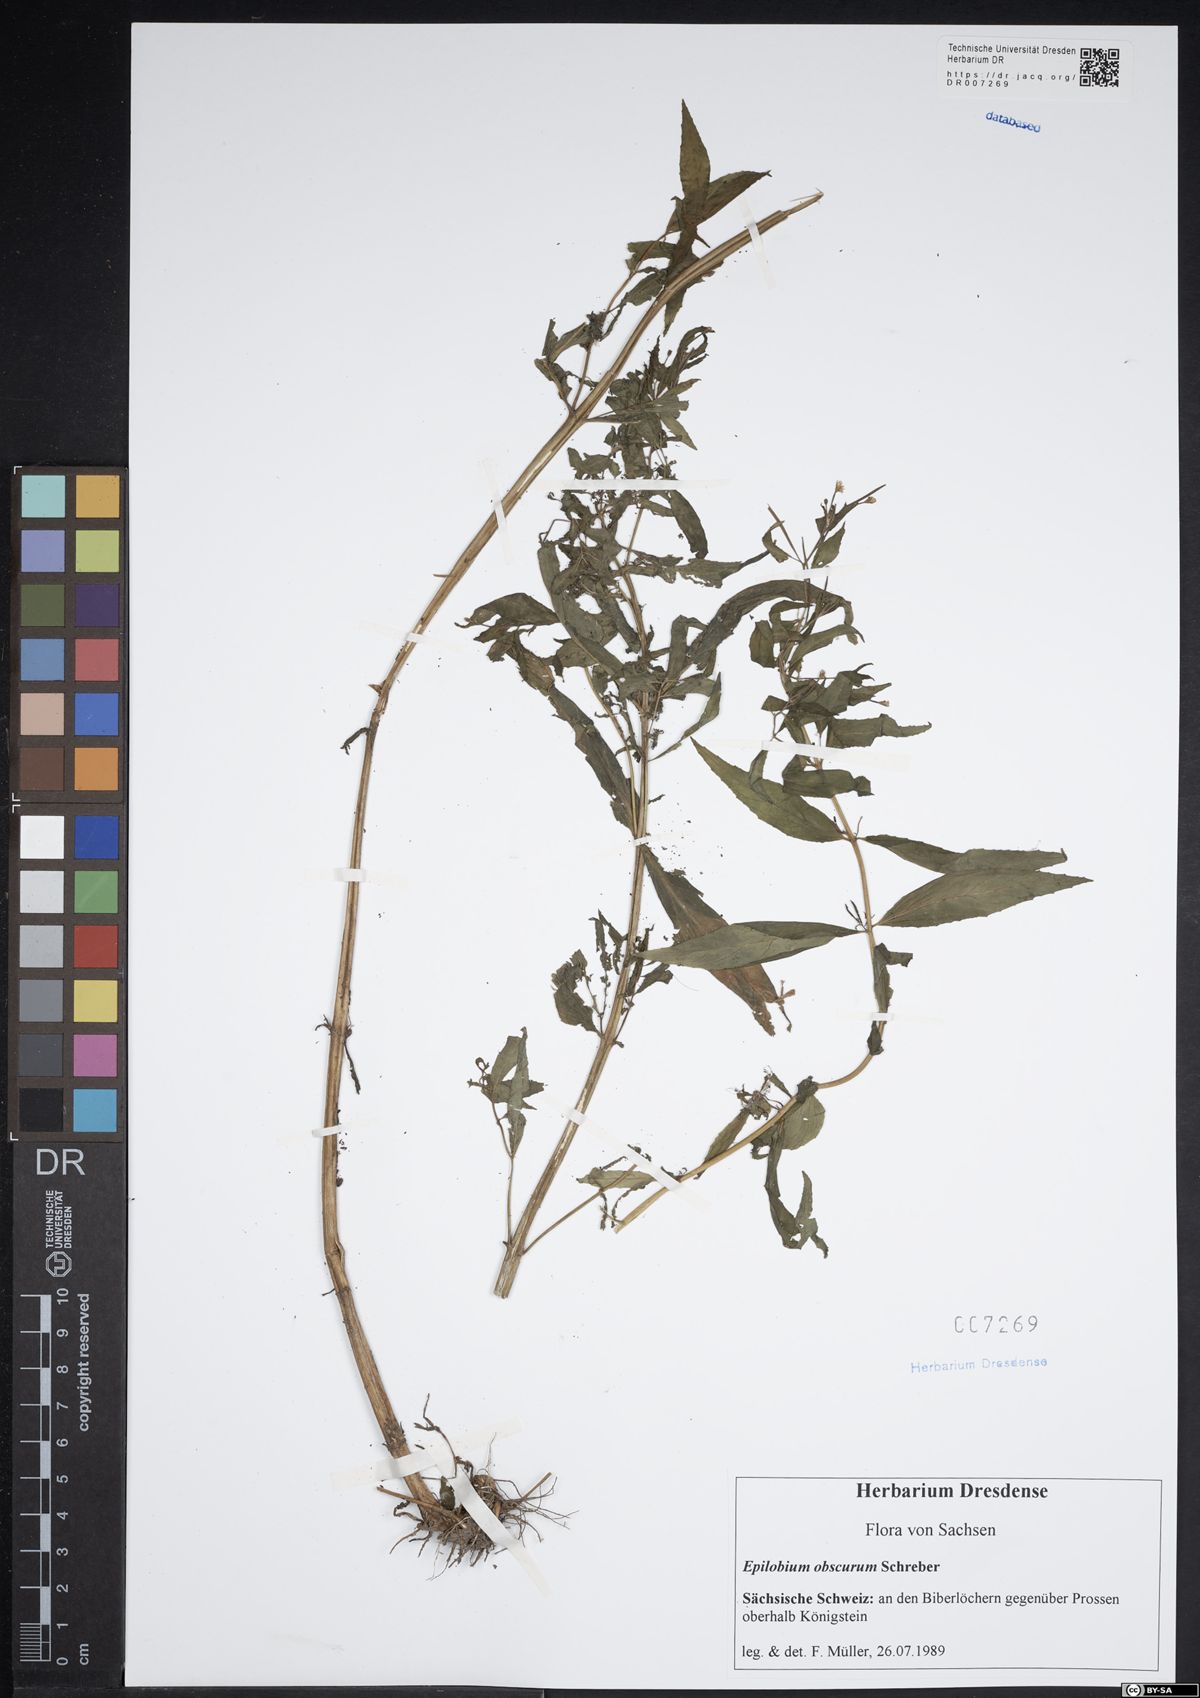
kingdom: Plantae
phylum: Tracheophyta
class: Magnoliopsida
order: Myrtales
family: Onagraceae
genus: Epilobium
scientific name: Epilobium obscurum
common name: Short-fruited willowherb
